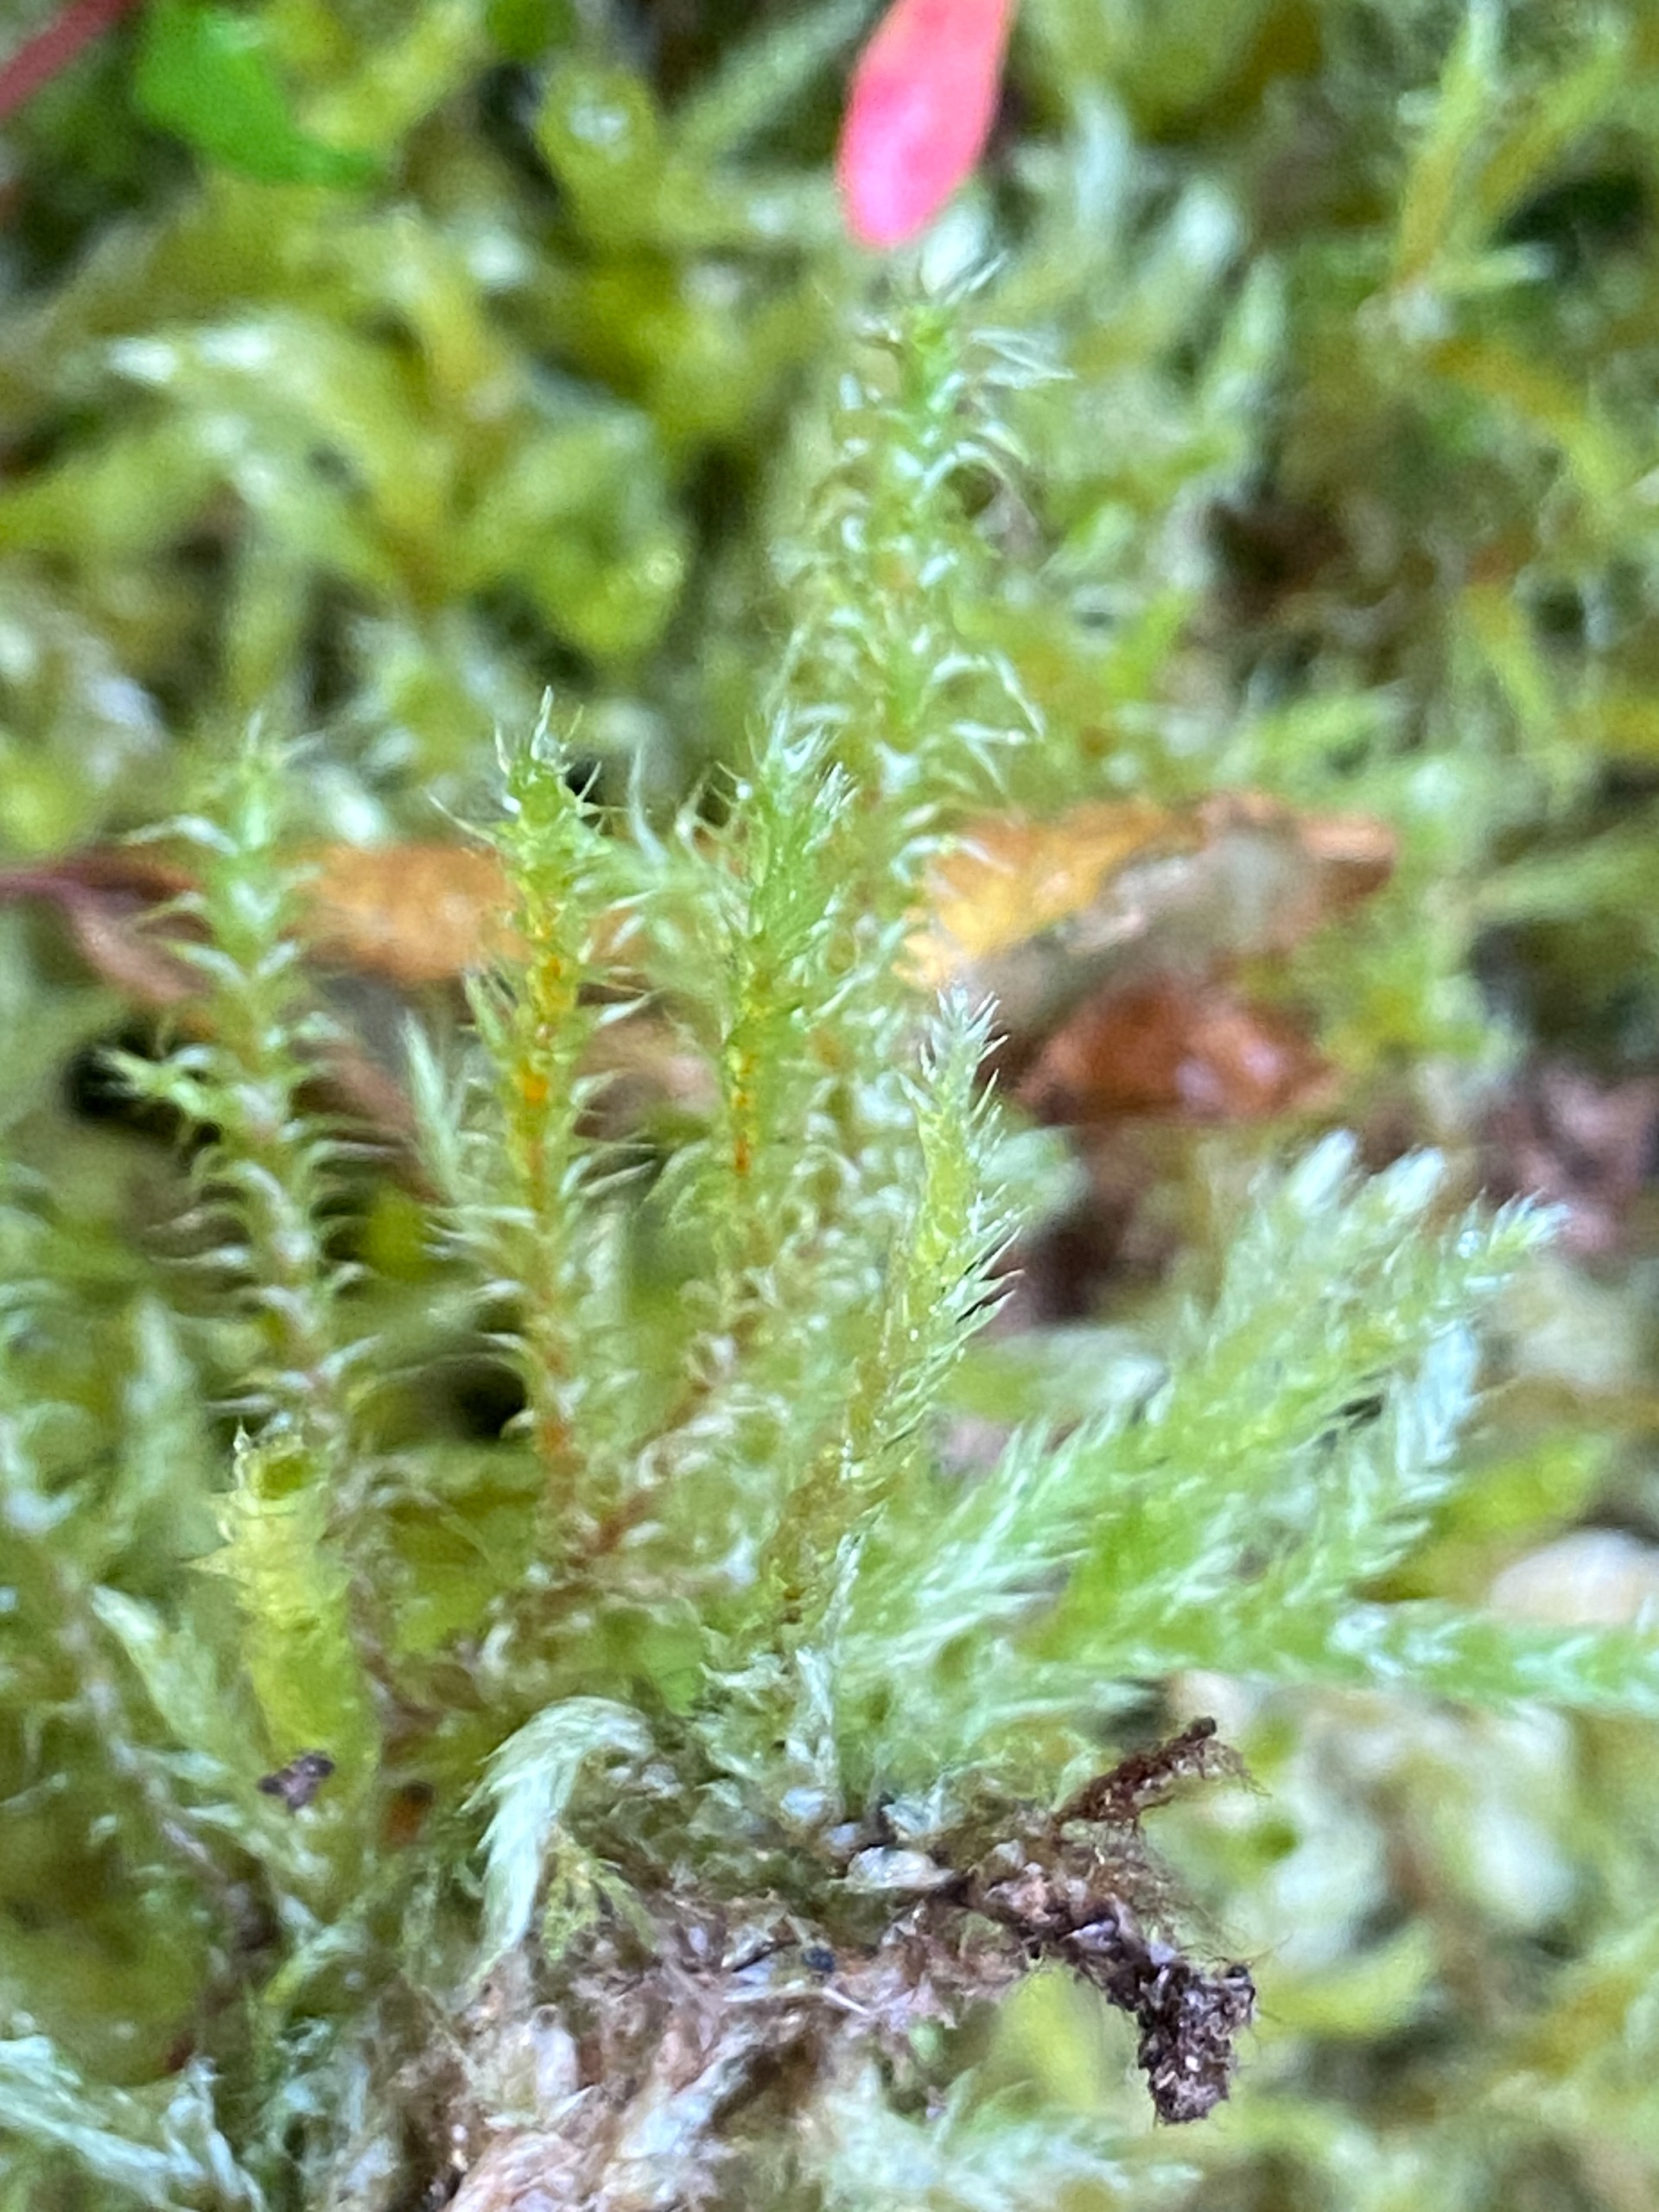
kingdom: Plantae
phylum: Bryophyta
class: Bryopsida
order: Hypnales
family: Hylocomiaceae
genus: Rhytidiadelphus
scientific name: Rhytidiadelphus squarrosus
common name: Plæne-kransemos
